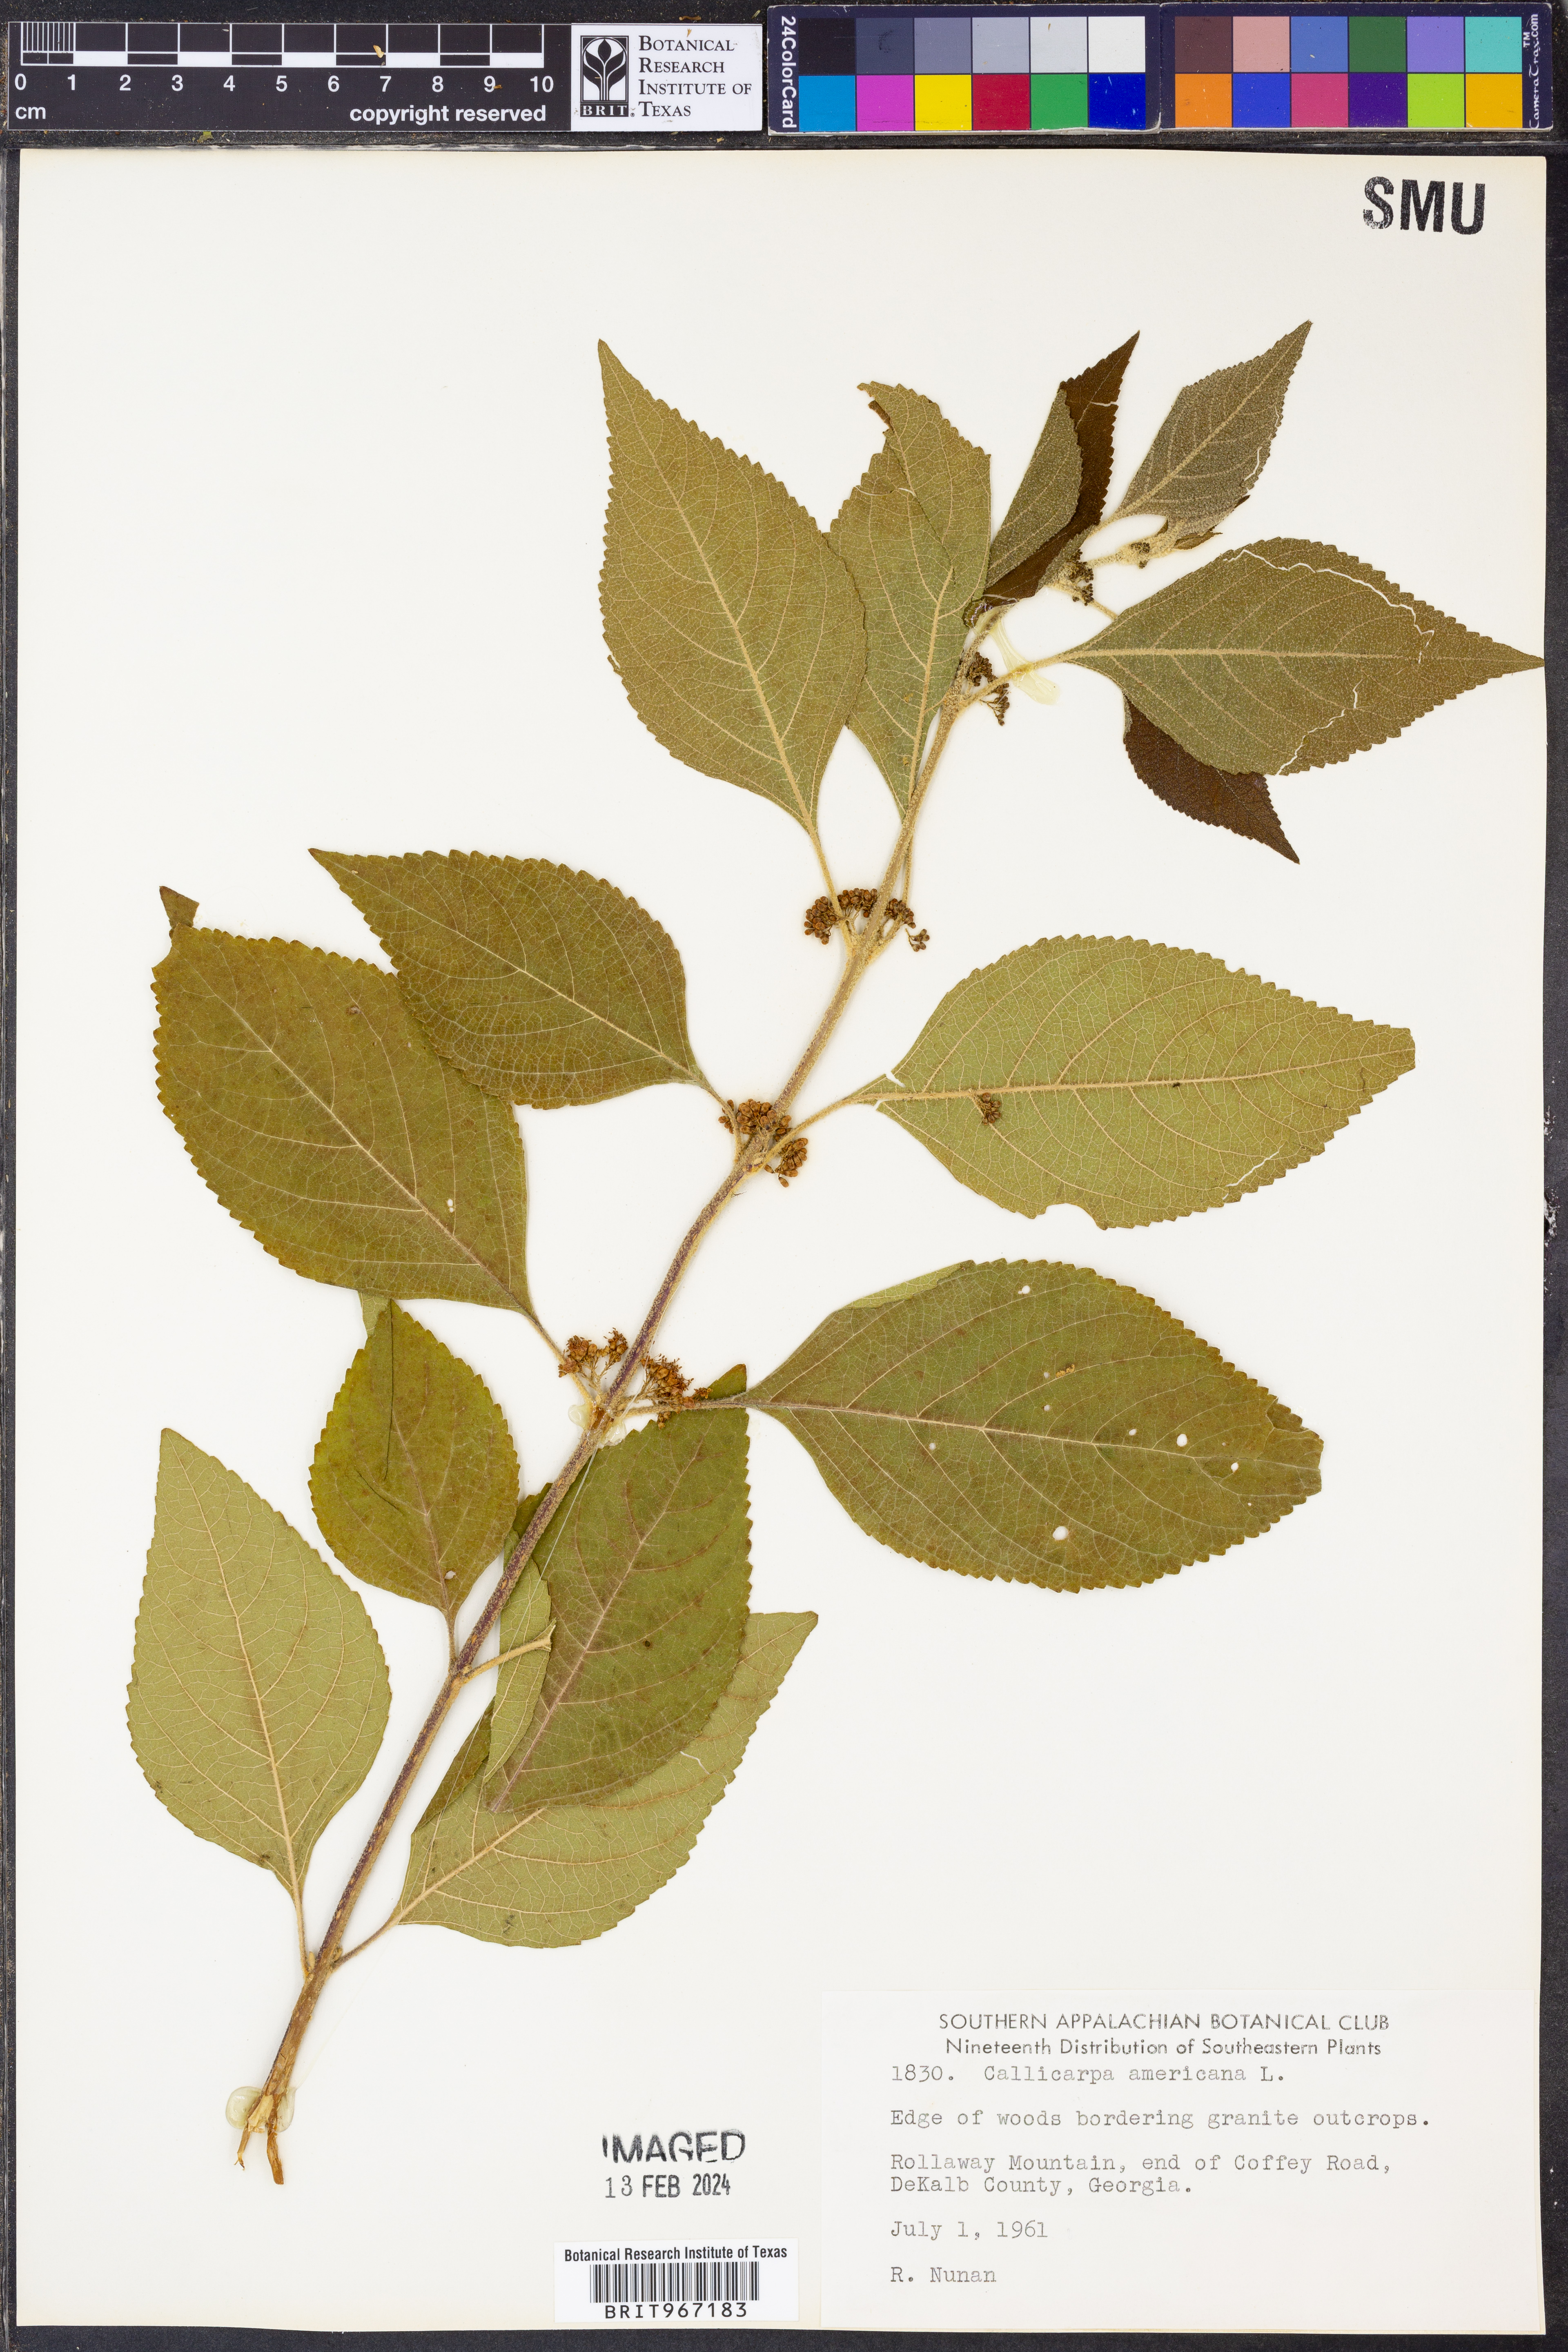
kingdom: Plantae
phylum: Tracheophyta
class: Magnoliopsida
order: Lamiales
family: Lamiaceae
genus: Callicarpa
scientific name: Callicarpa americana
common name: American beautyberry
